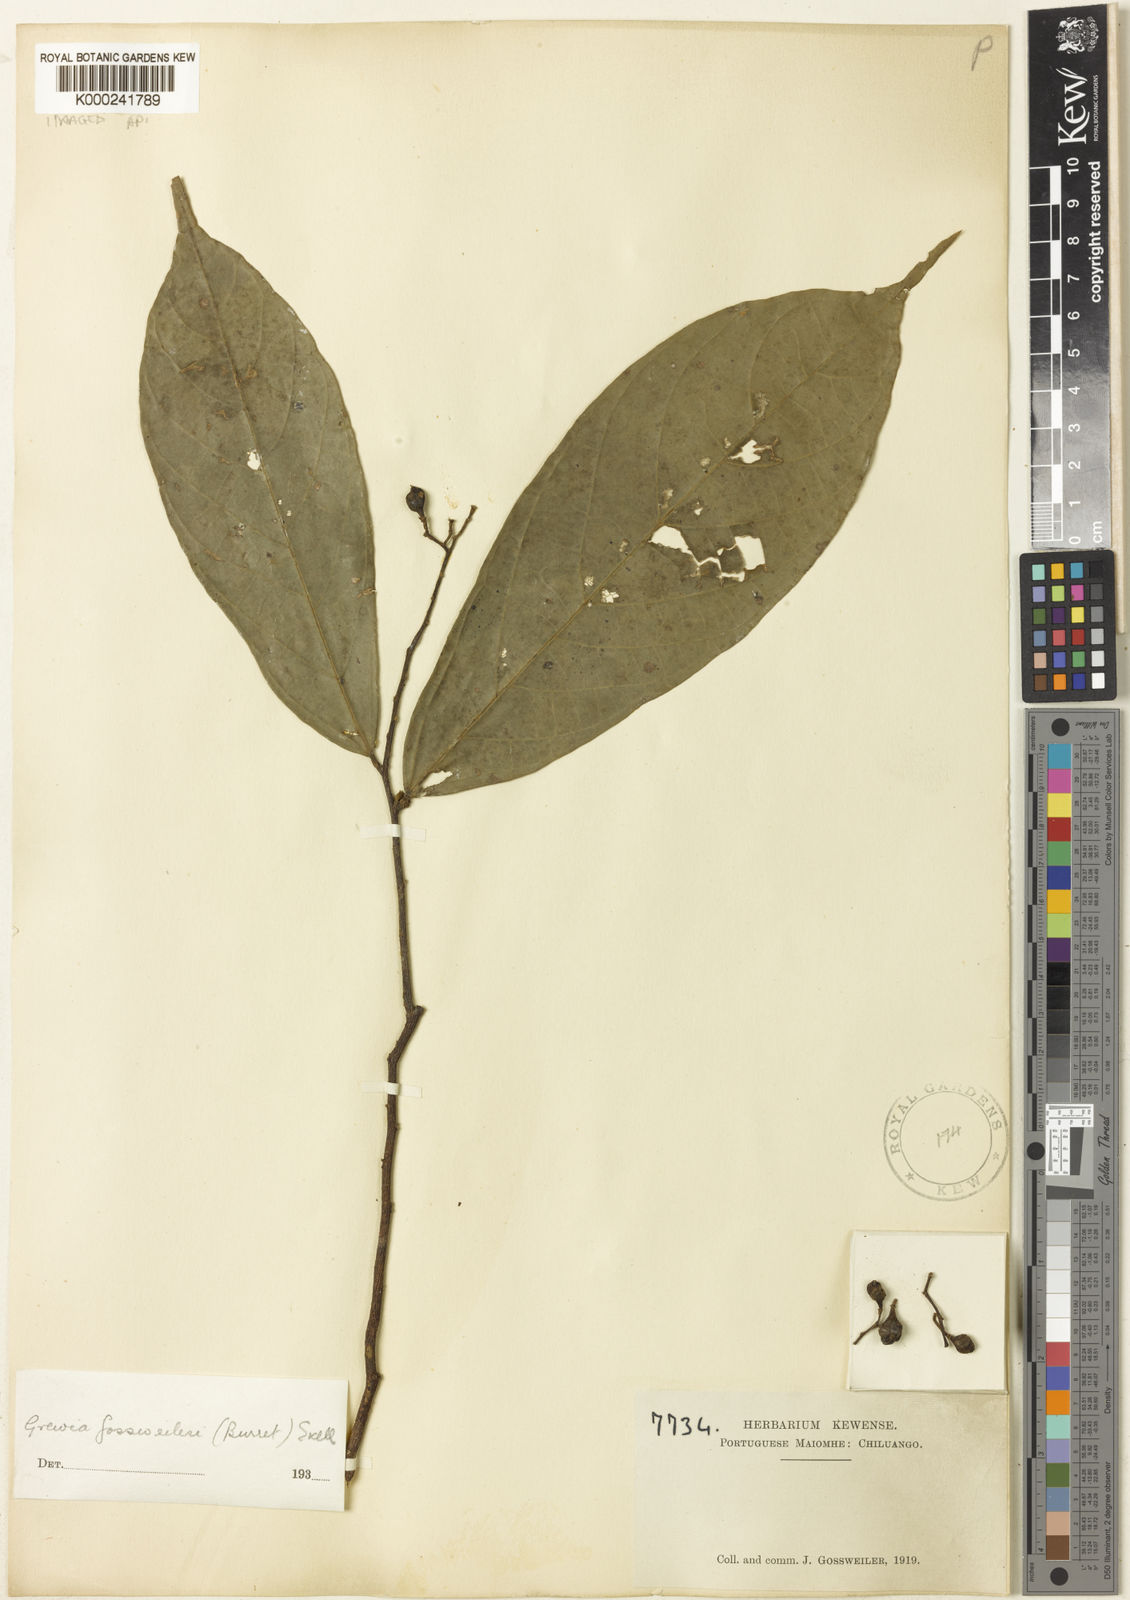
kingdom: Plantae
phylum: Tracheophyta
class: Magnoliopsida
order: Malvales
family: Malvaceae
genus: Microcos
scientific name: Microcos gossweileri
